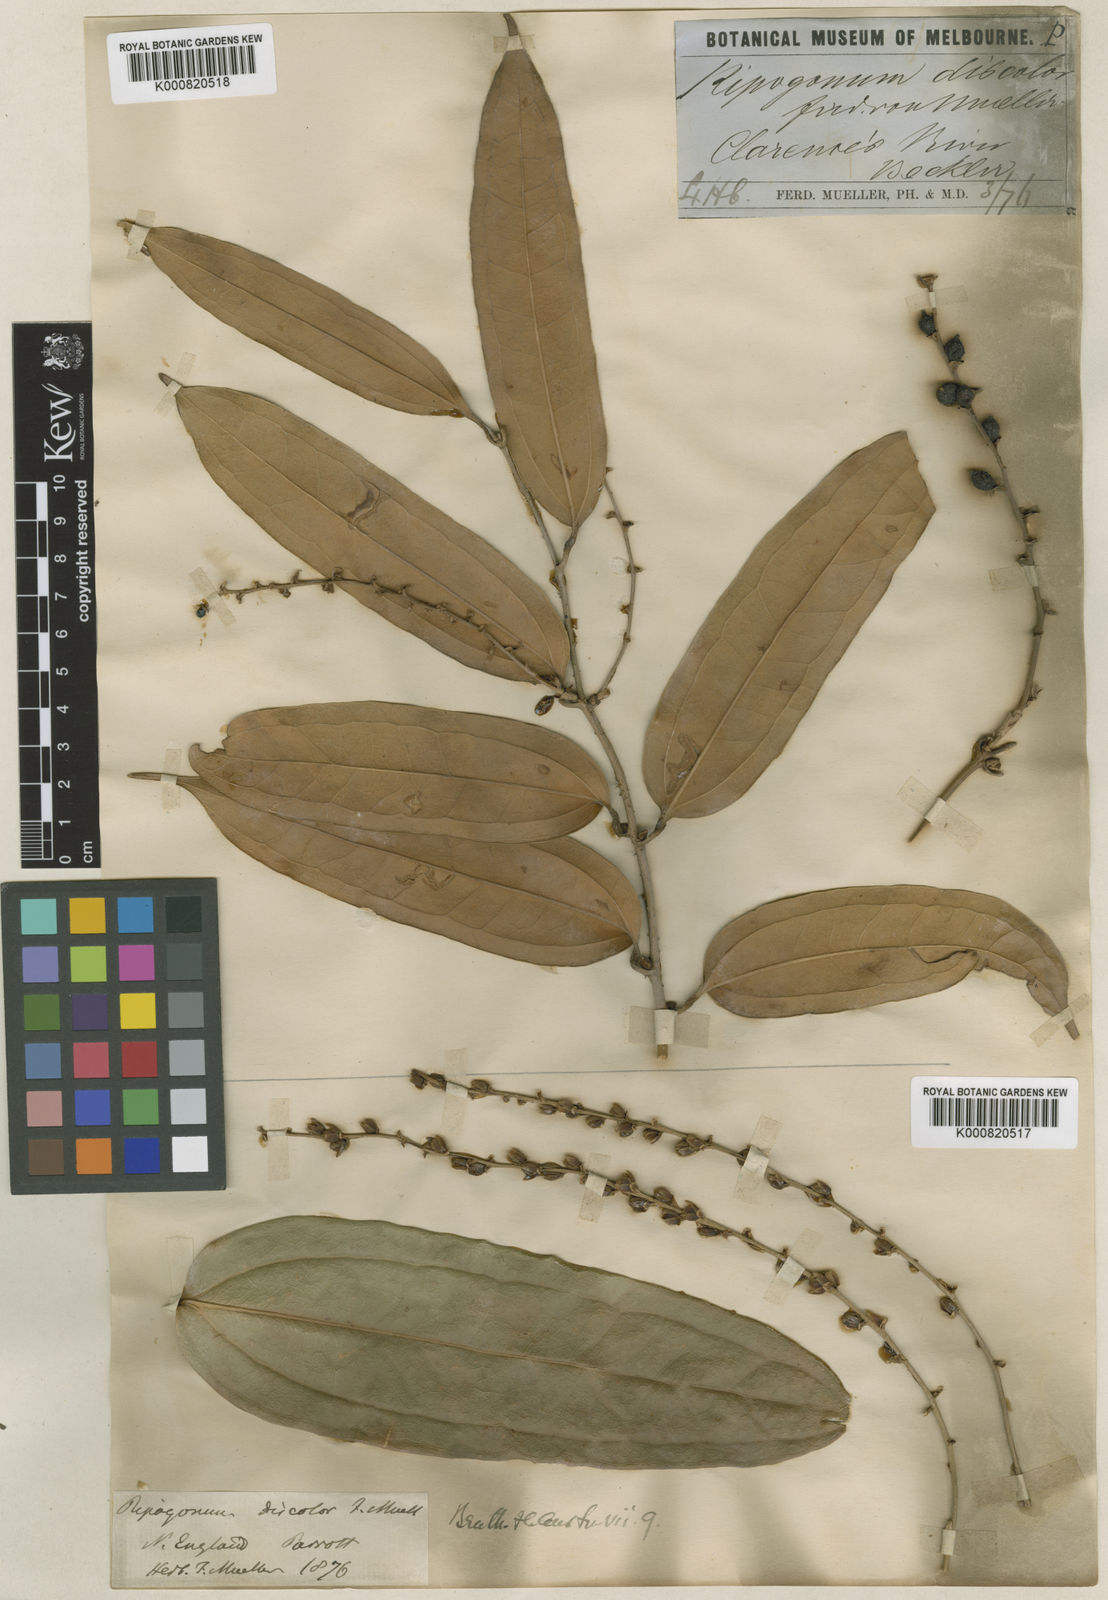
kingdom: Plantae
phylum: Tracheophyta
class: Liliopsida
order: Liliales
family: Ripogonaceae
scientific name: Ripogonaceae
